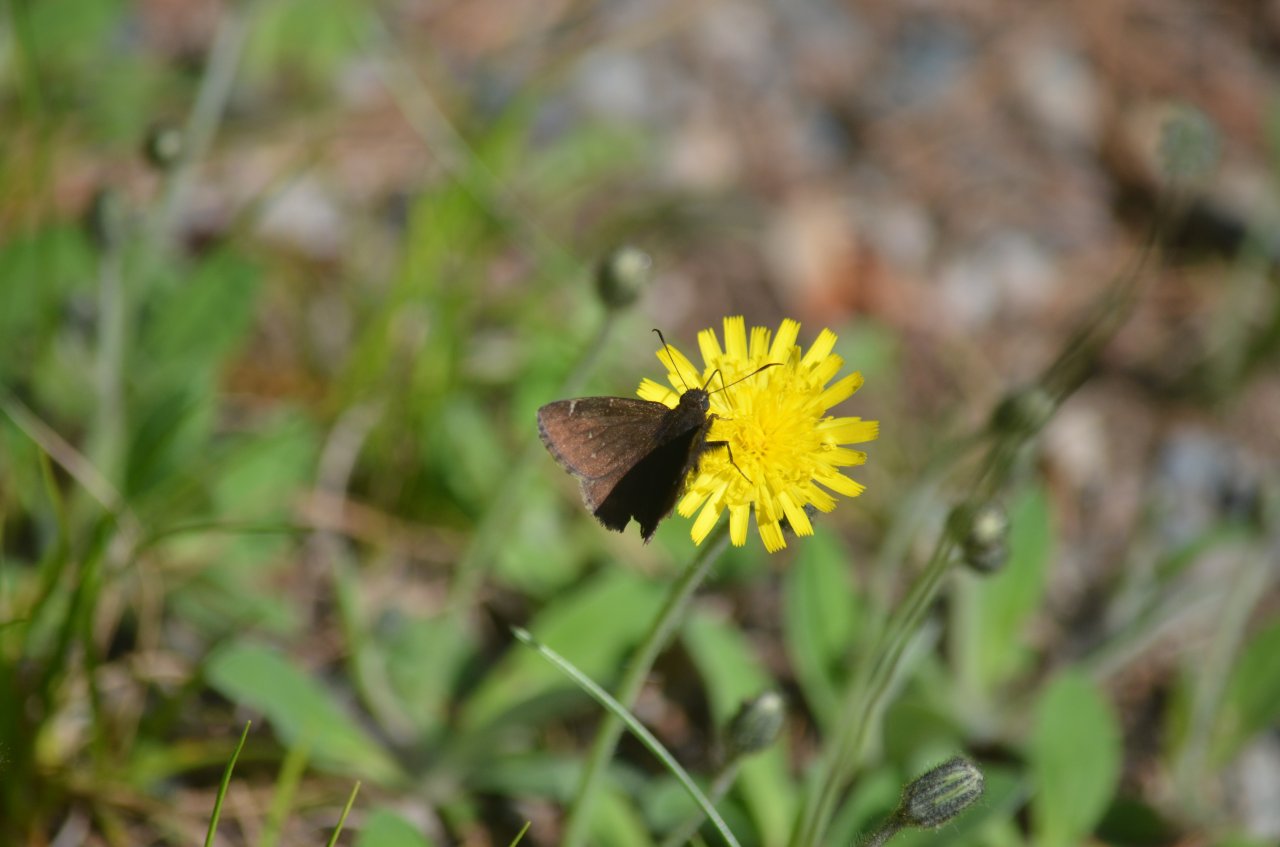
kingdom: Animalia
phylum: Arthropoda
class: Insecta
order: Lepidoptera
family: Hesperiidae
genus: Autochton
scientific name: Autochton
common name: Northern Cloudywing
